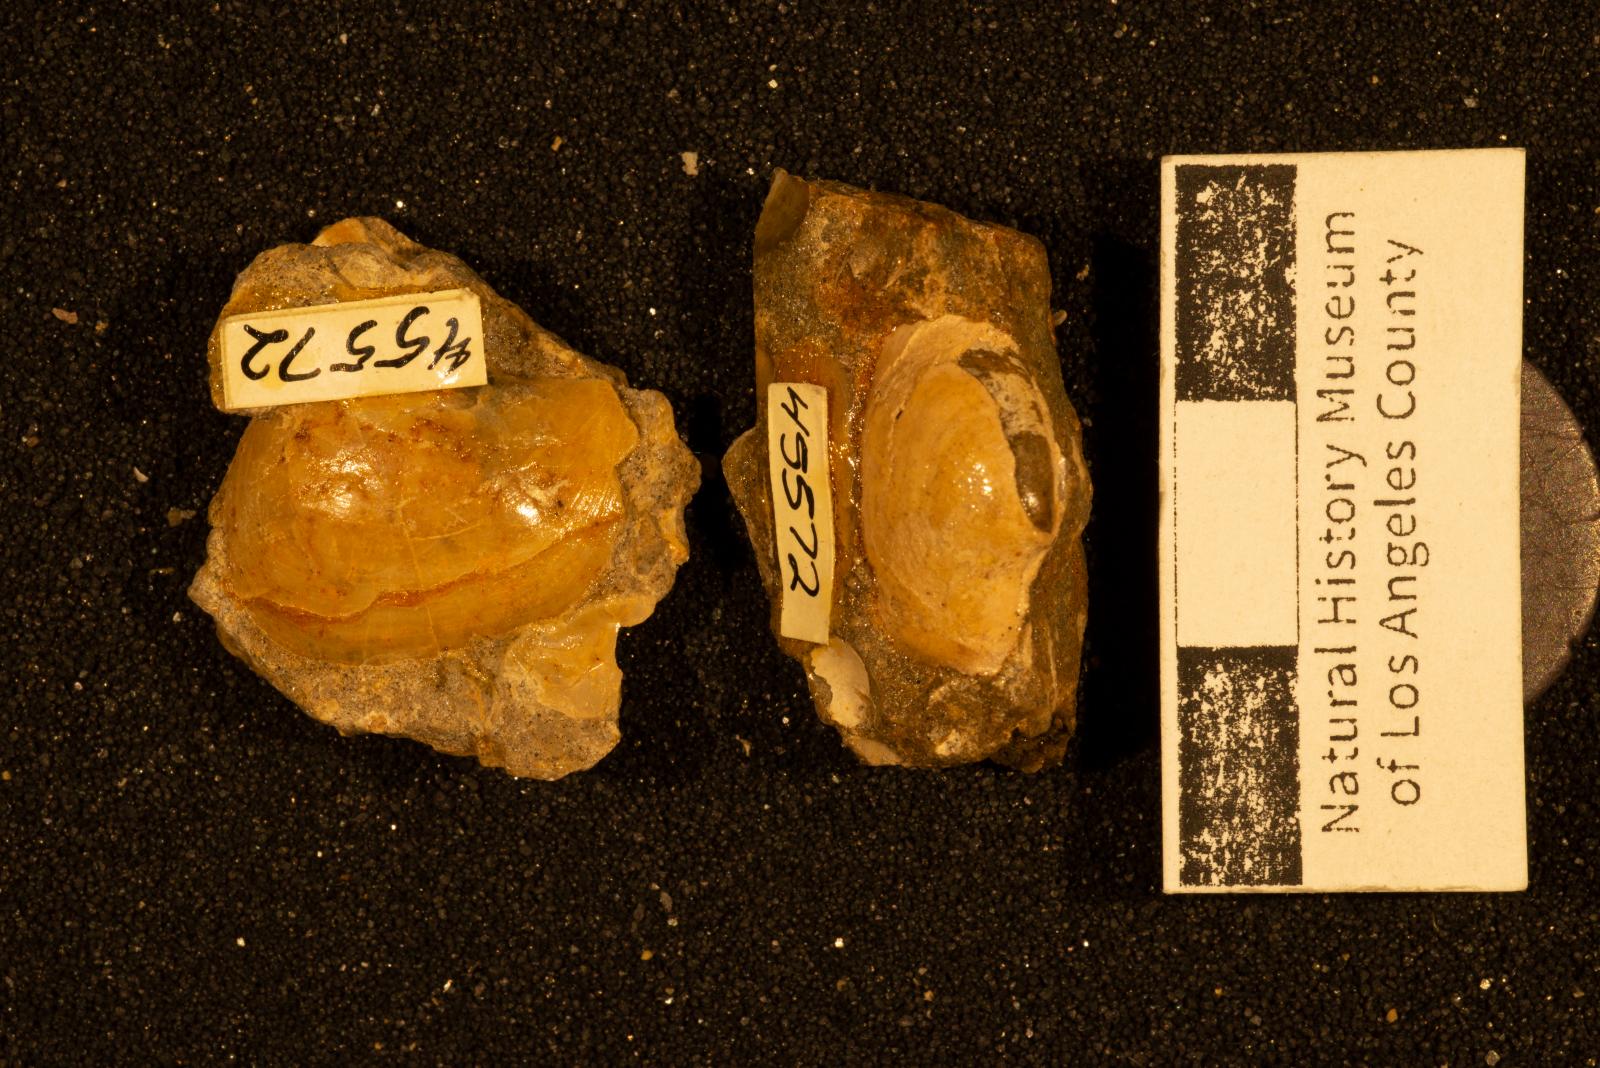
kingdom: Animalia
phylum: Mollusca
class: Bivalvia
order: Cardiida
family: Tancrediidae
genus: Meekia
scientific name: Meekia daileyi
